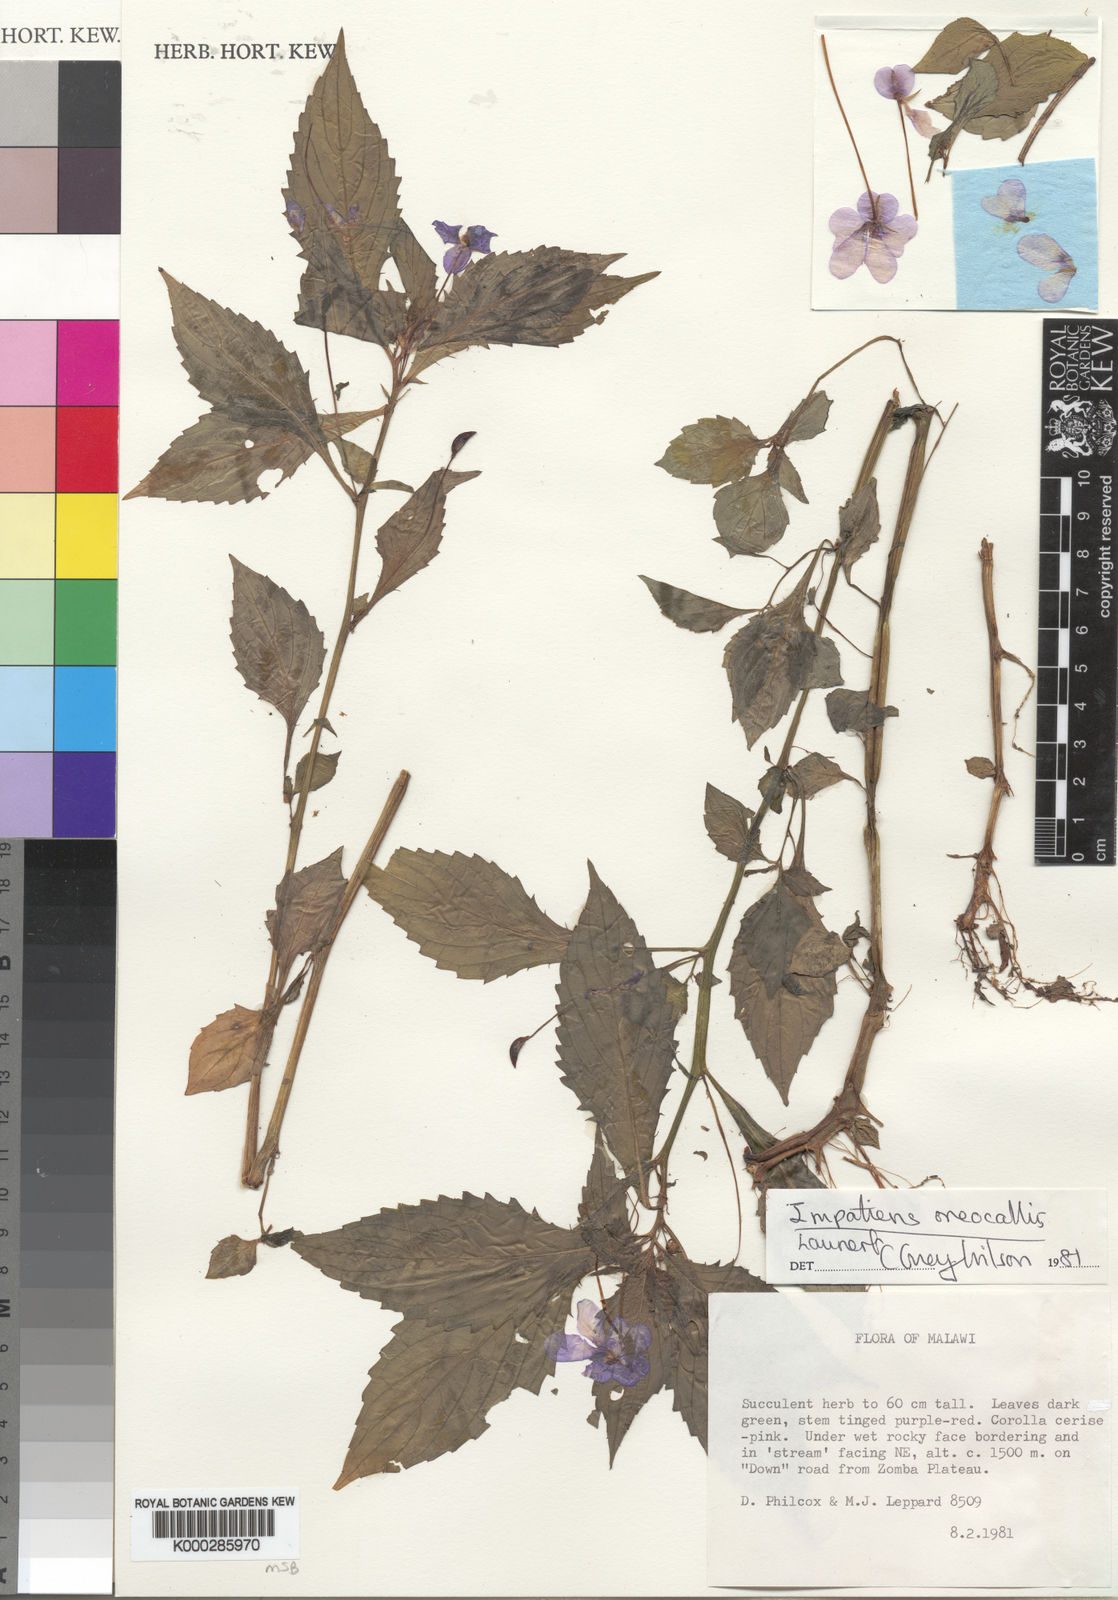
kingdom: Plantae
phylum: Tracheophyta
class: Magnoliopsida
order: Ericales
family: Balsaminaceae
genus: Impatiens
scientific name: Impatiens oreocallis
